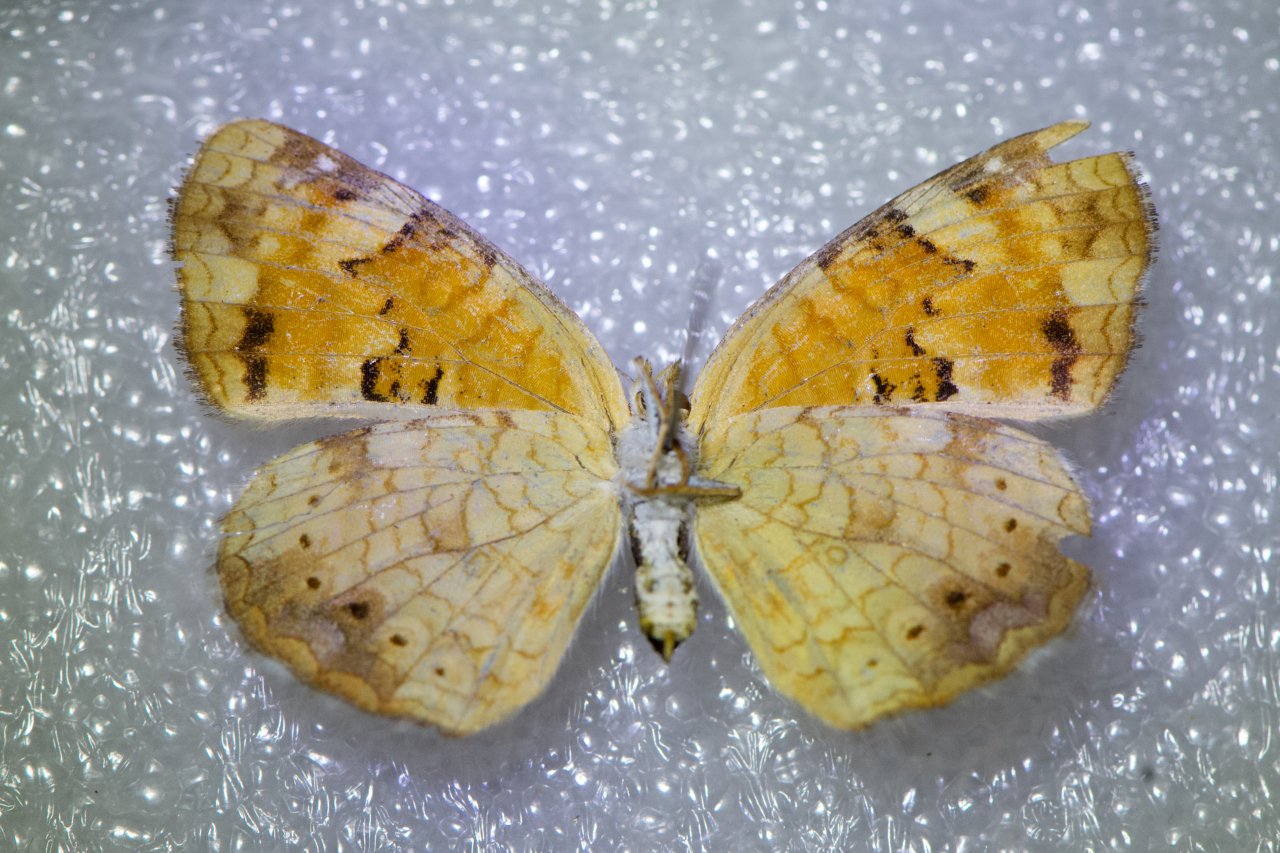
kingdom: Animalia
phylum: Arthropoda
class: Insecta
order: Lepidoptera
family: Nymphalidae
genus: Phyciodes
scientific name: Phyciodes tharos
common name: Northern Crescent
